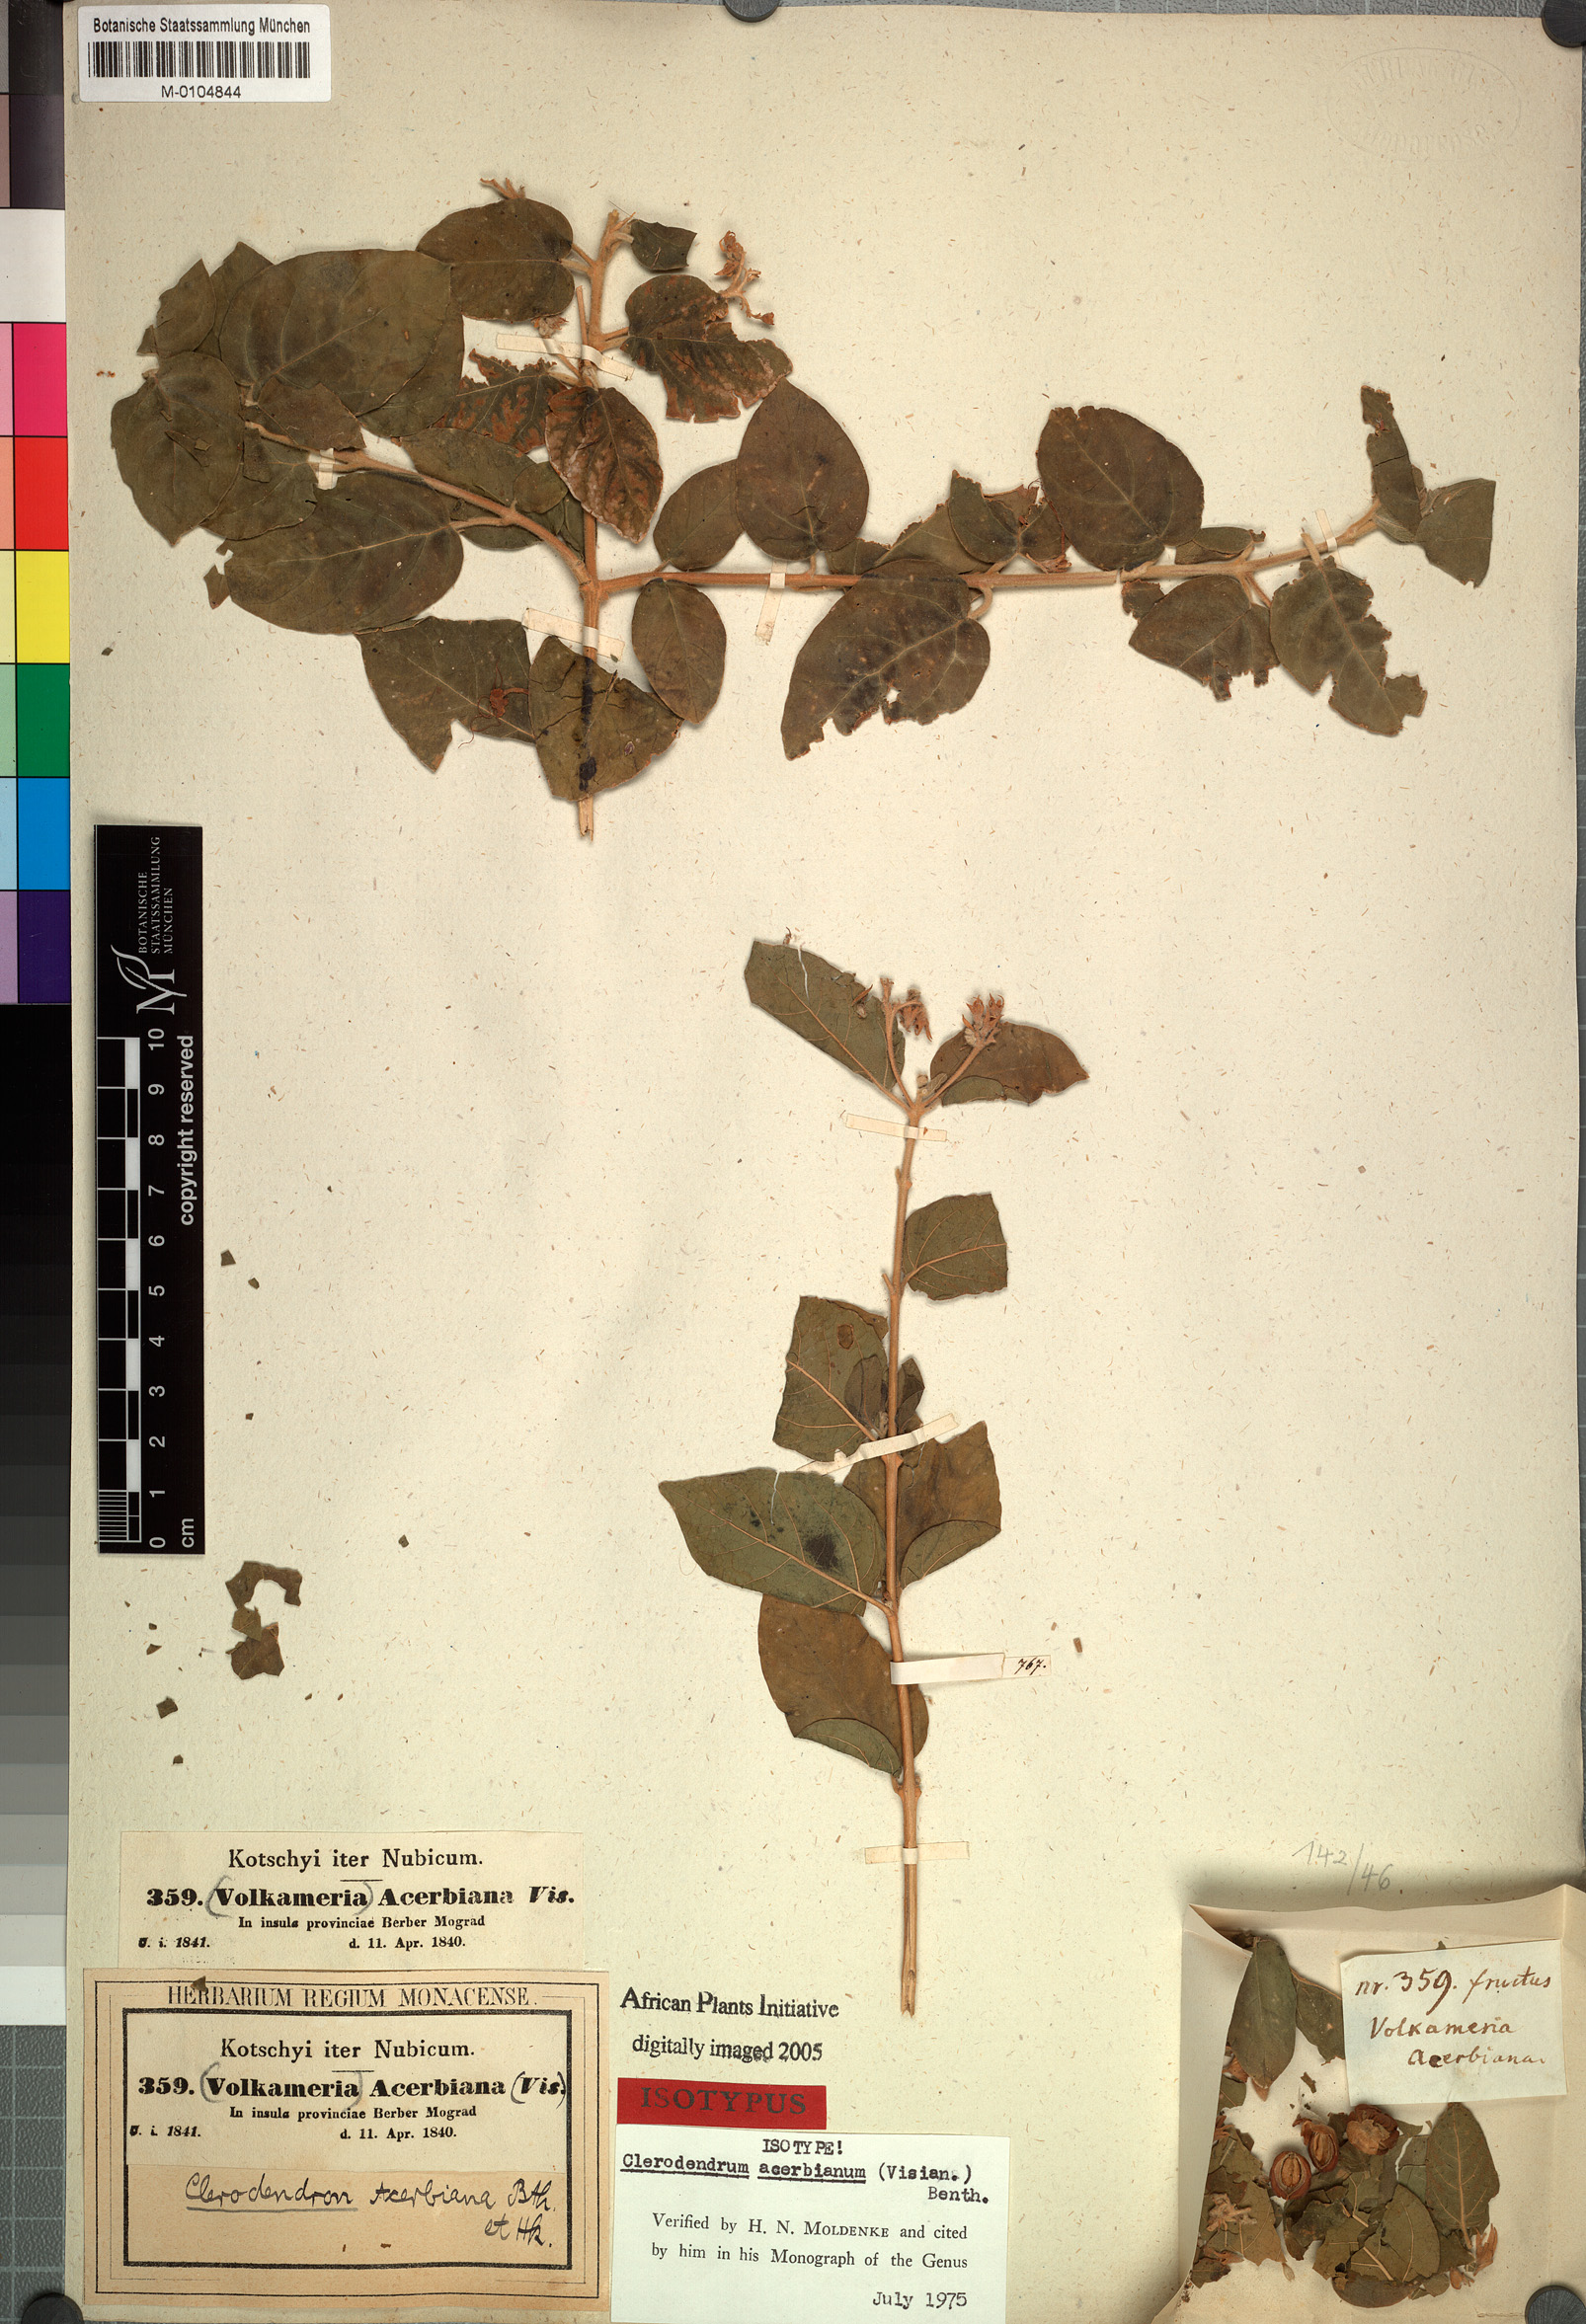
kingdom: Plantae
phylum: Tracheophyta
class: Magnoliopsida
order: Lamiales
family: Lamiaceae
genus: Volkameria
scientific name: Volkameria acerbiana
